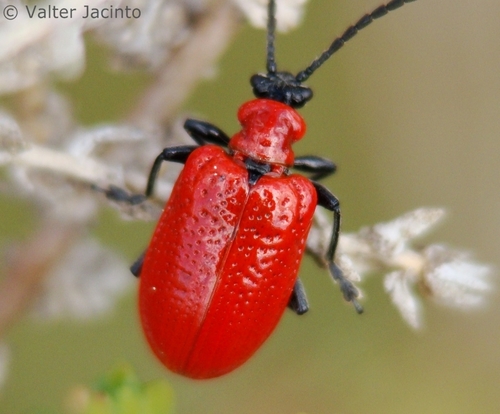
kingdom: Animalia
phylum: Arthropoda
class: Insecta
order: Coleoptera
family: Chrysomelidae
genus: Lilioceris
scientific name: Lilioceris lilii
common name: Lily beetle
